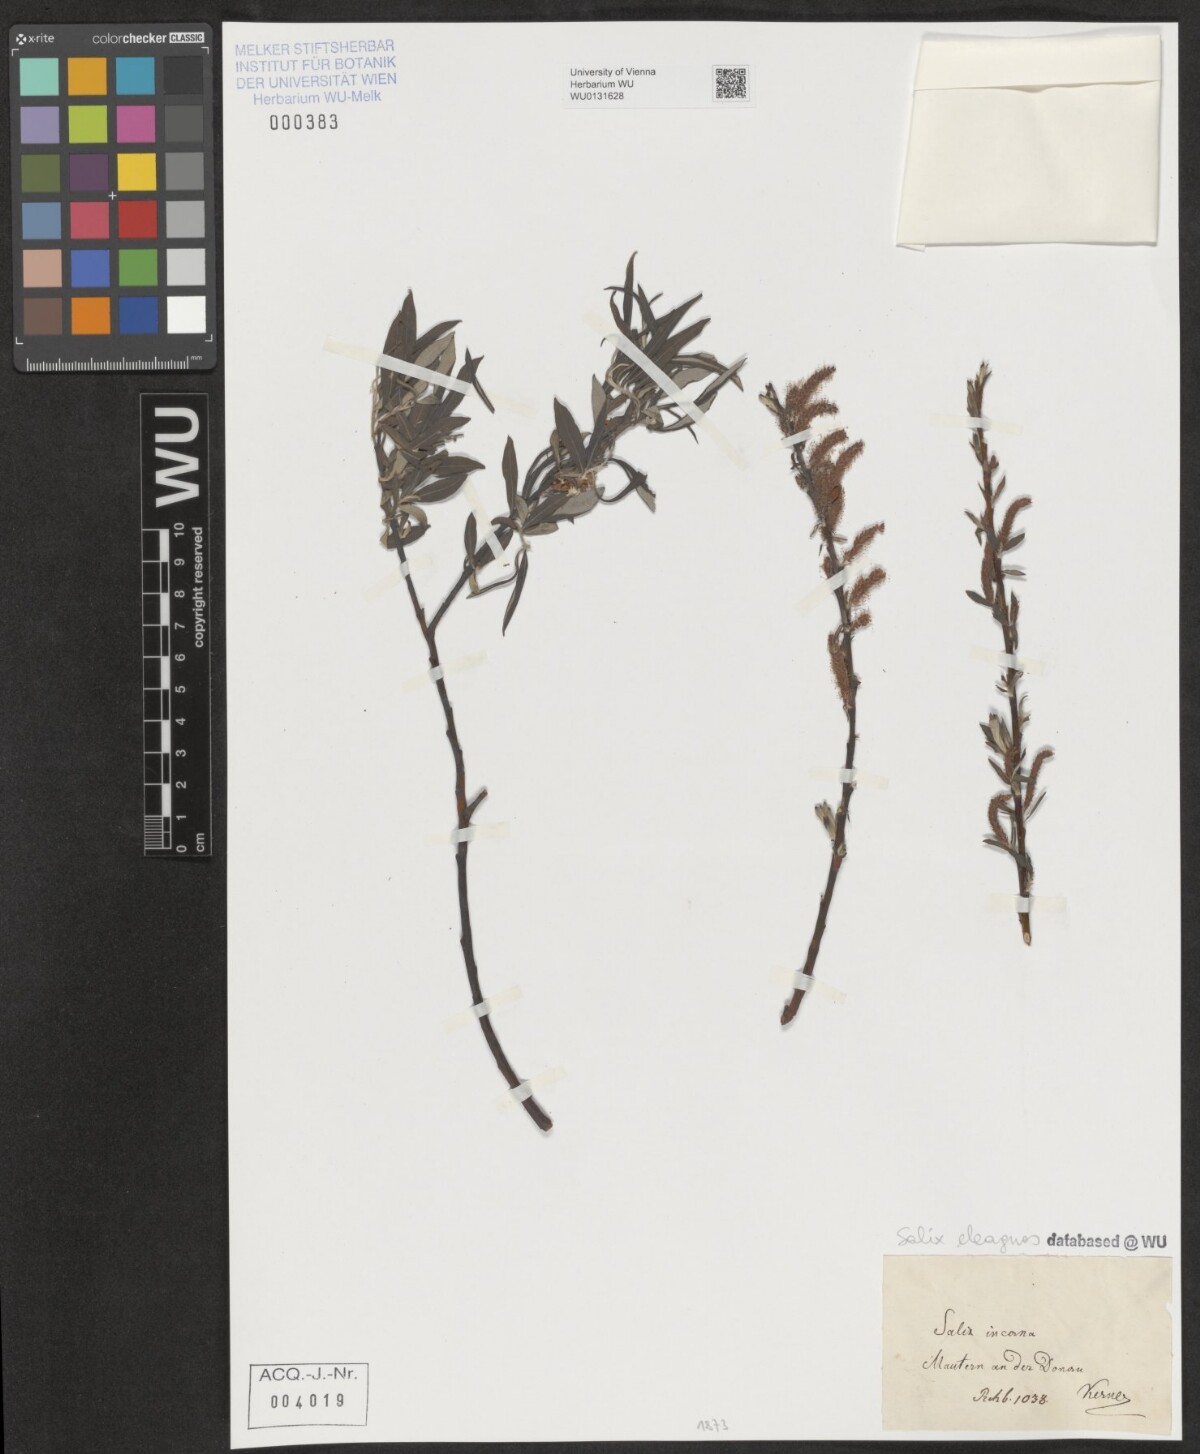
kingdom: Plantae
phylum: Tracheophyta
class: Magnoliopsida
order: Malpighiales
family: Salicaceae
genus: Salix
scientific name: Salix eleagnos
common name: Elaeagnus willow
